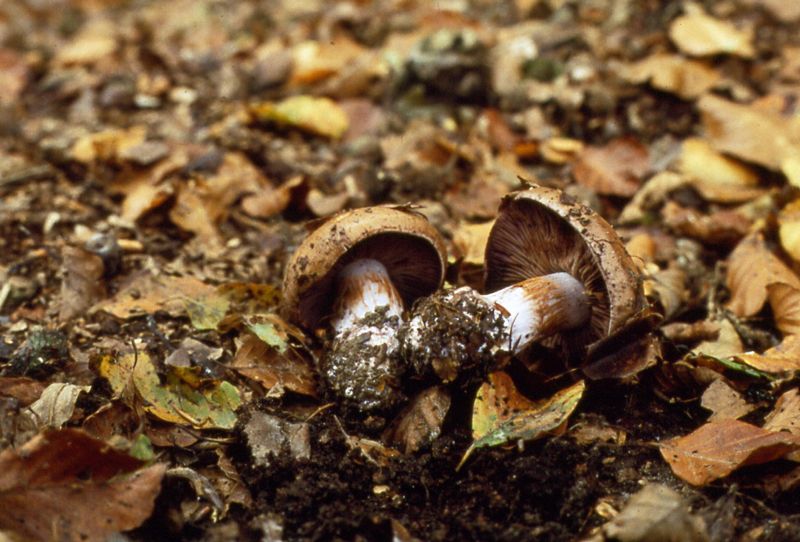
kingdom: Fungi
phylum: Basidiomycota
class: Agaricomycetes
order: Agaricales
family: Cortinariaceae
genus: Cortinarius
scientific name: Cortinarius anserinus
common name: bøge-slørhat
